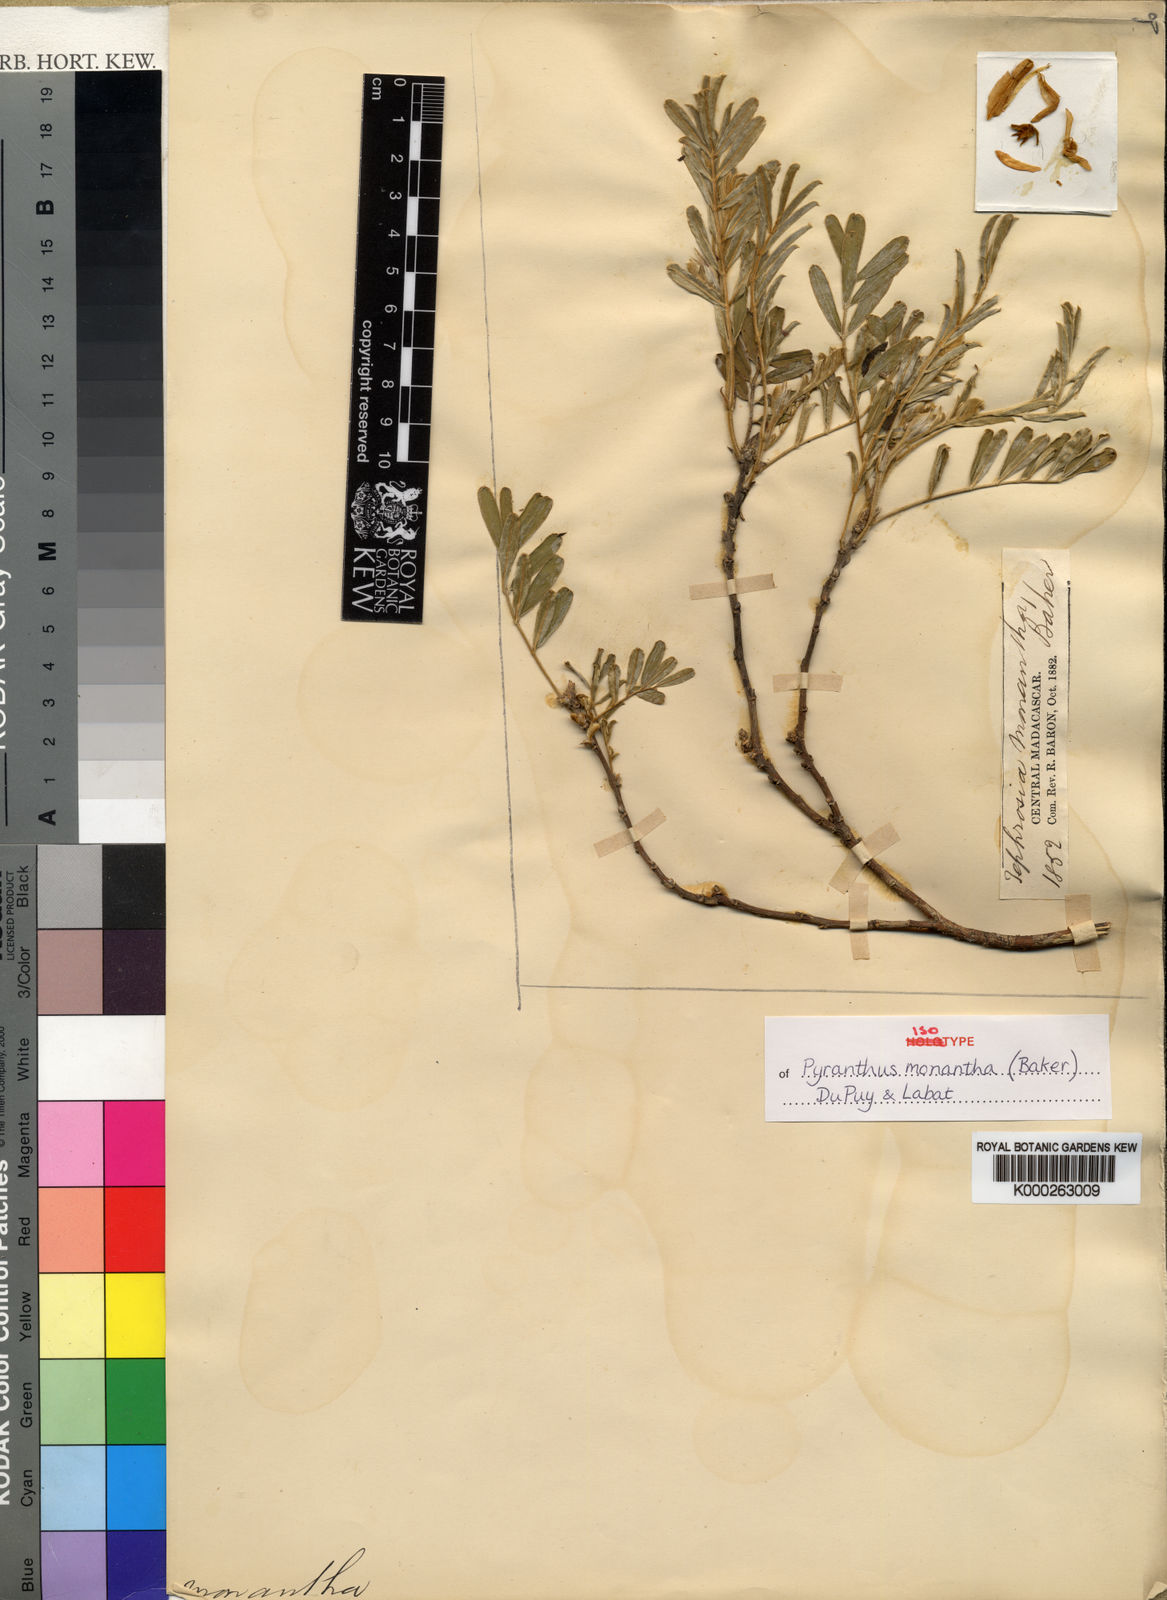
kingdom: Plantae
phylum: Tracheophyta
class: Magnoliopsida
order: Fabales
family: Fabaceae
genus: Pyranthus
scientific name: Pyranthus monanthus
